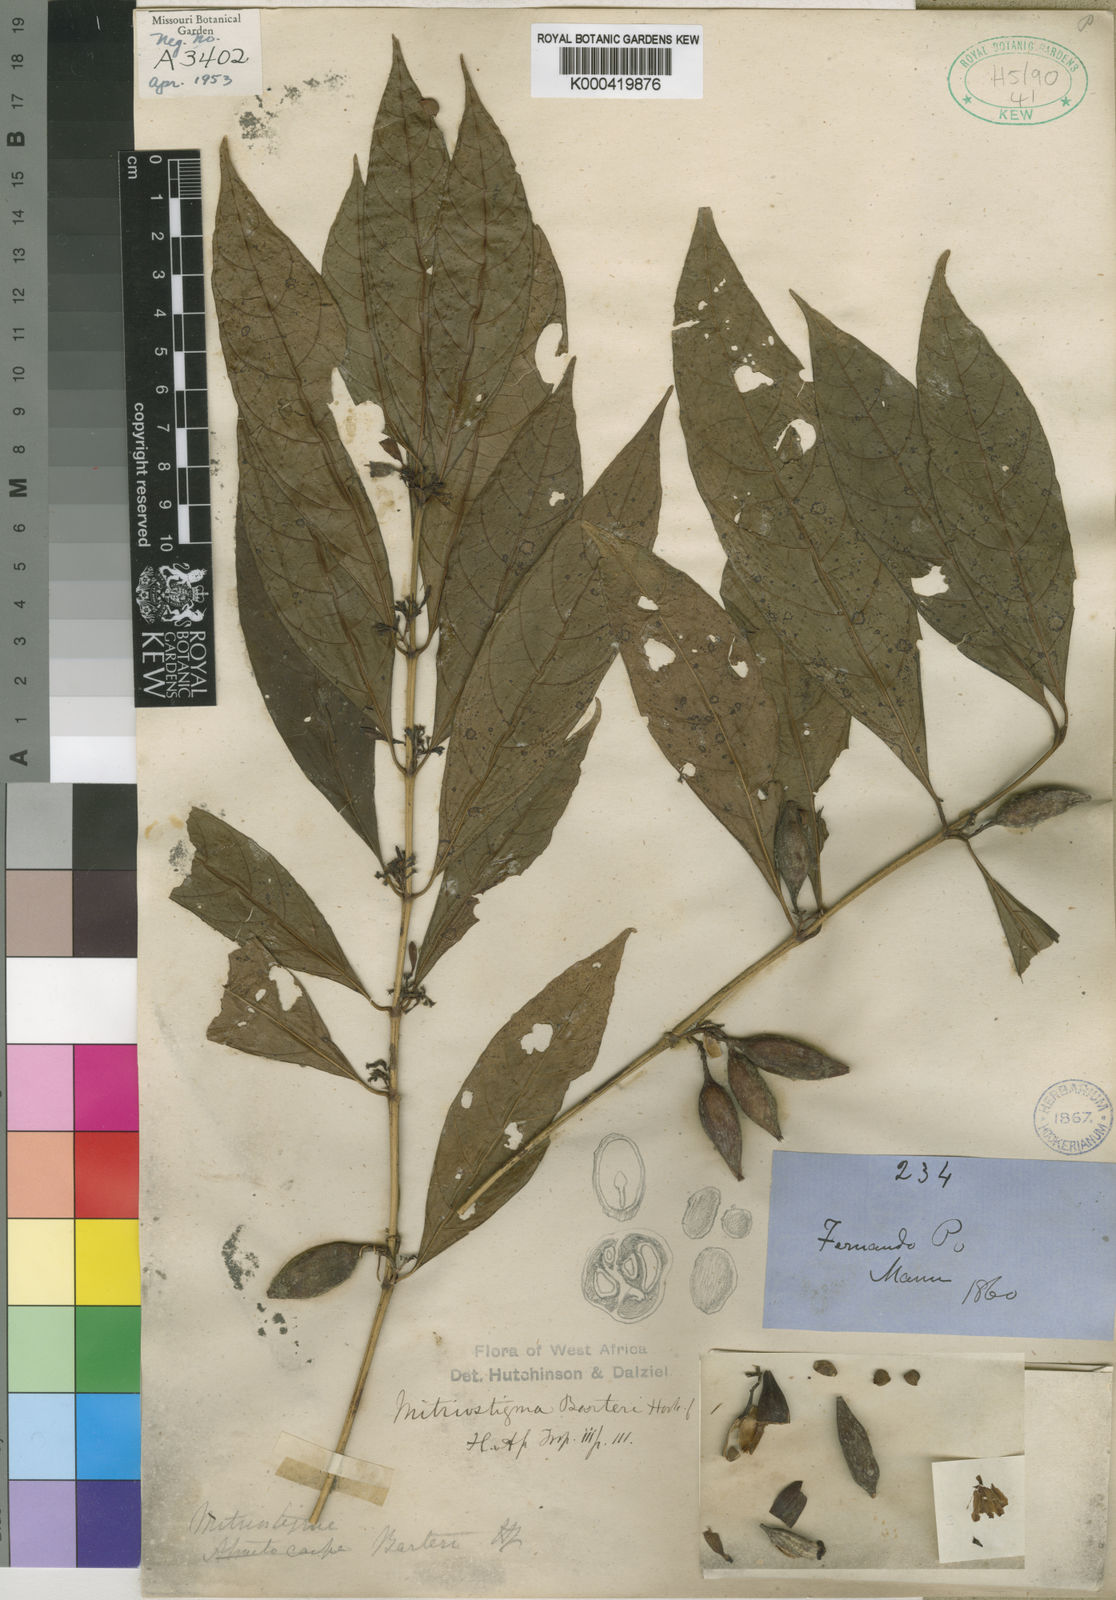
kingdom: Plantae
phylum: Tracheophyta
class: Magnoliopsida
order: Gentianales
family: Rubiaceae
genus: Mitriostigma
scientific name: Mitriostigma barteri
